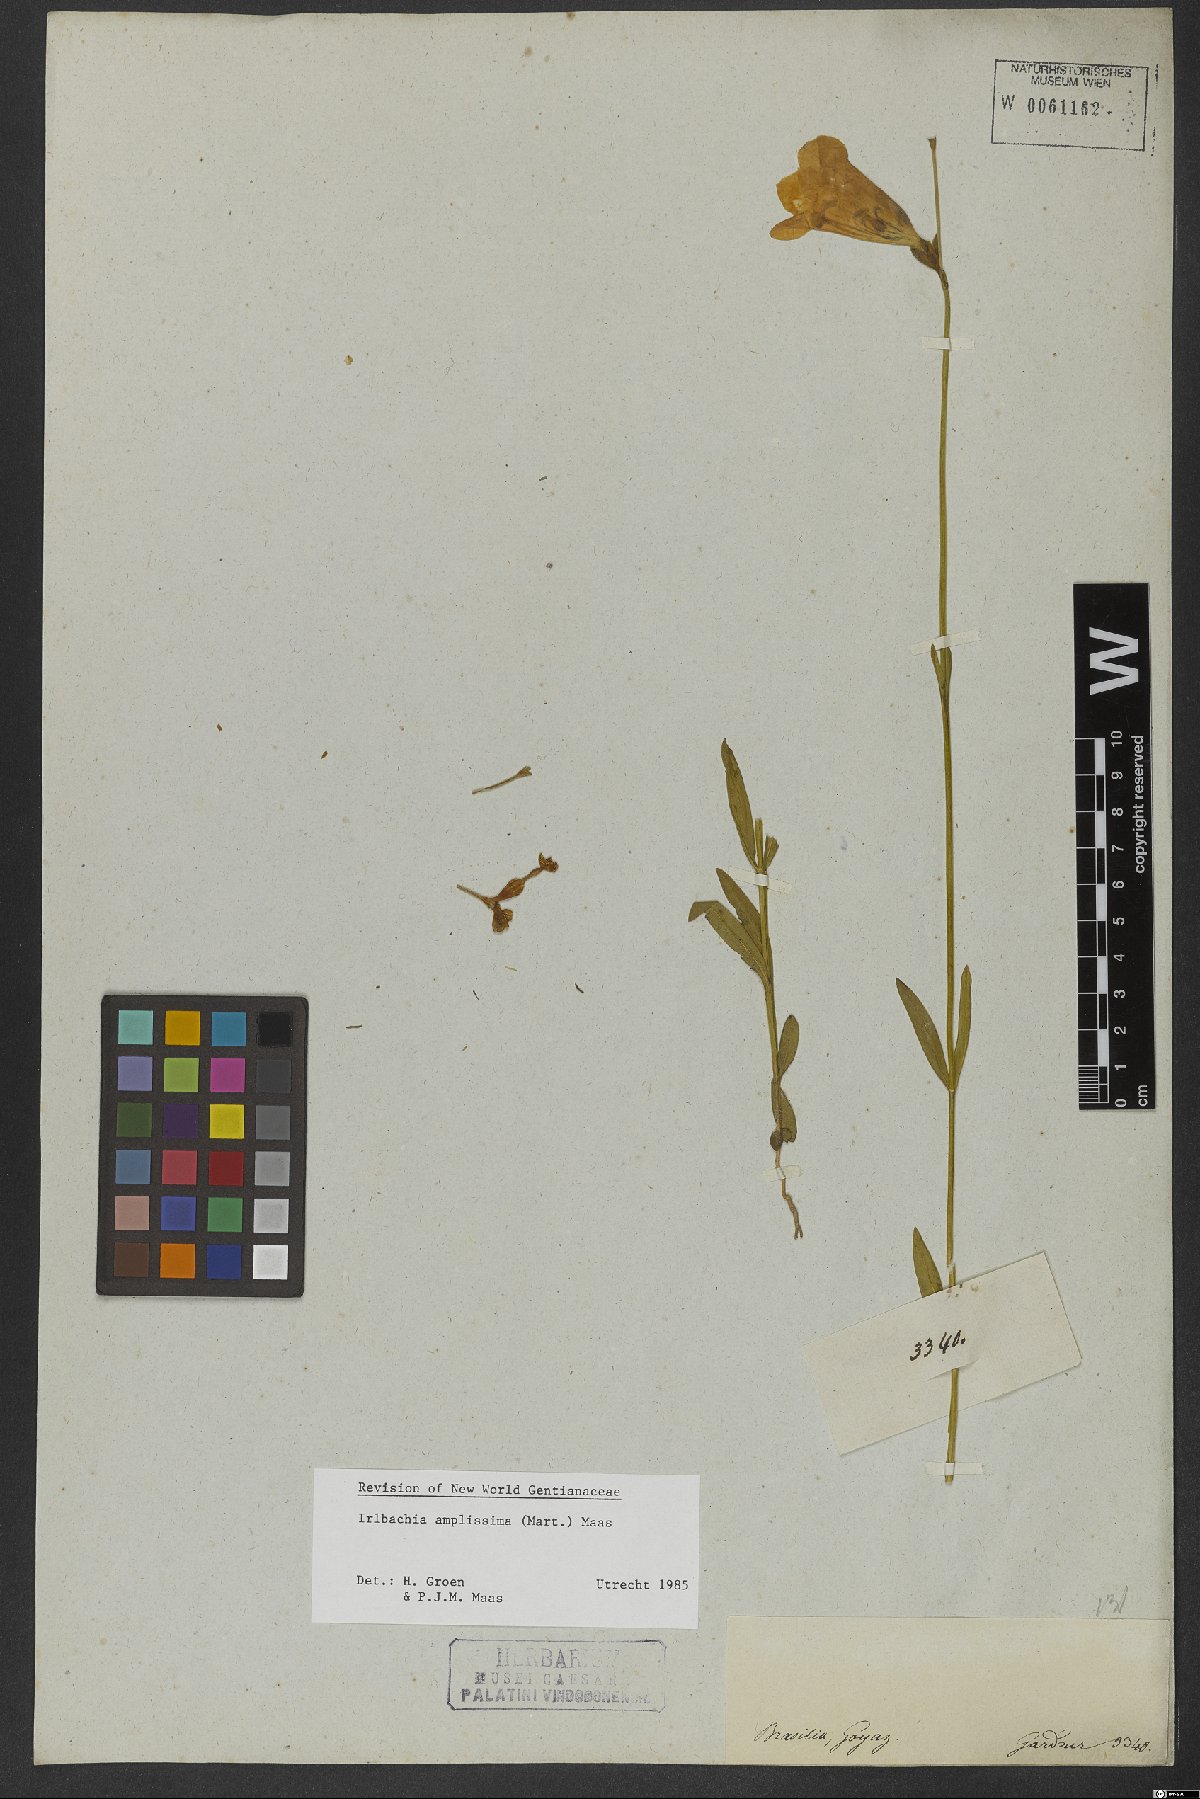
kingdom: Plantae
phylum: Tracheophyta
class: Magnoliopsida
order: Gentianales
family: Gentianaceae
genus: Calolisianthus
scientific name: Calolisianthus amplissimus
